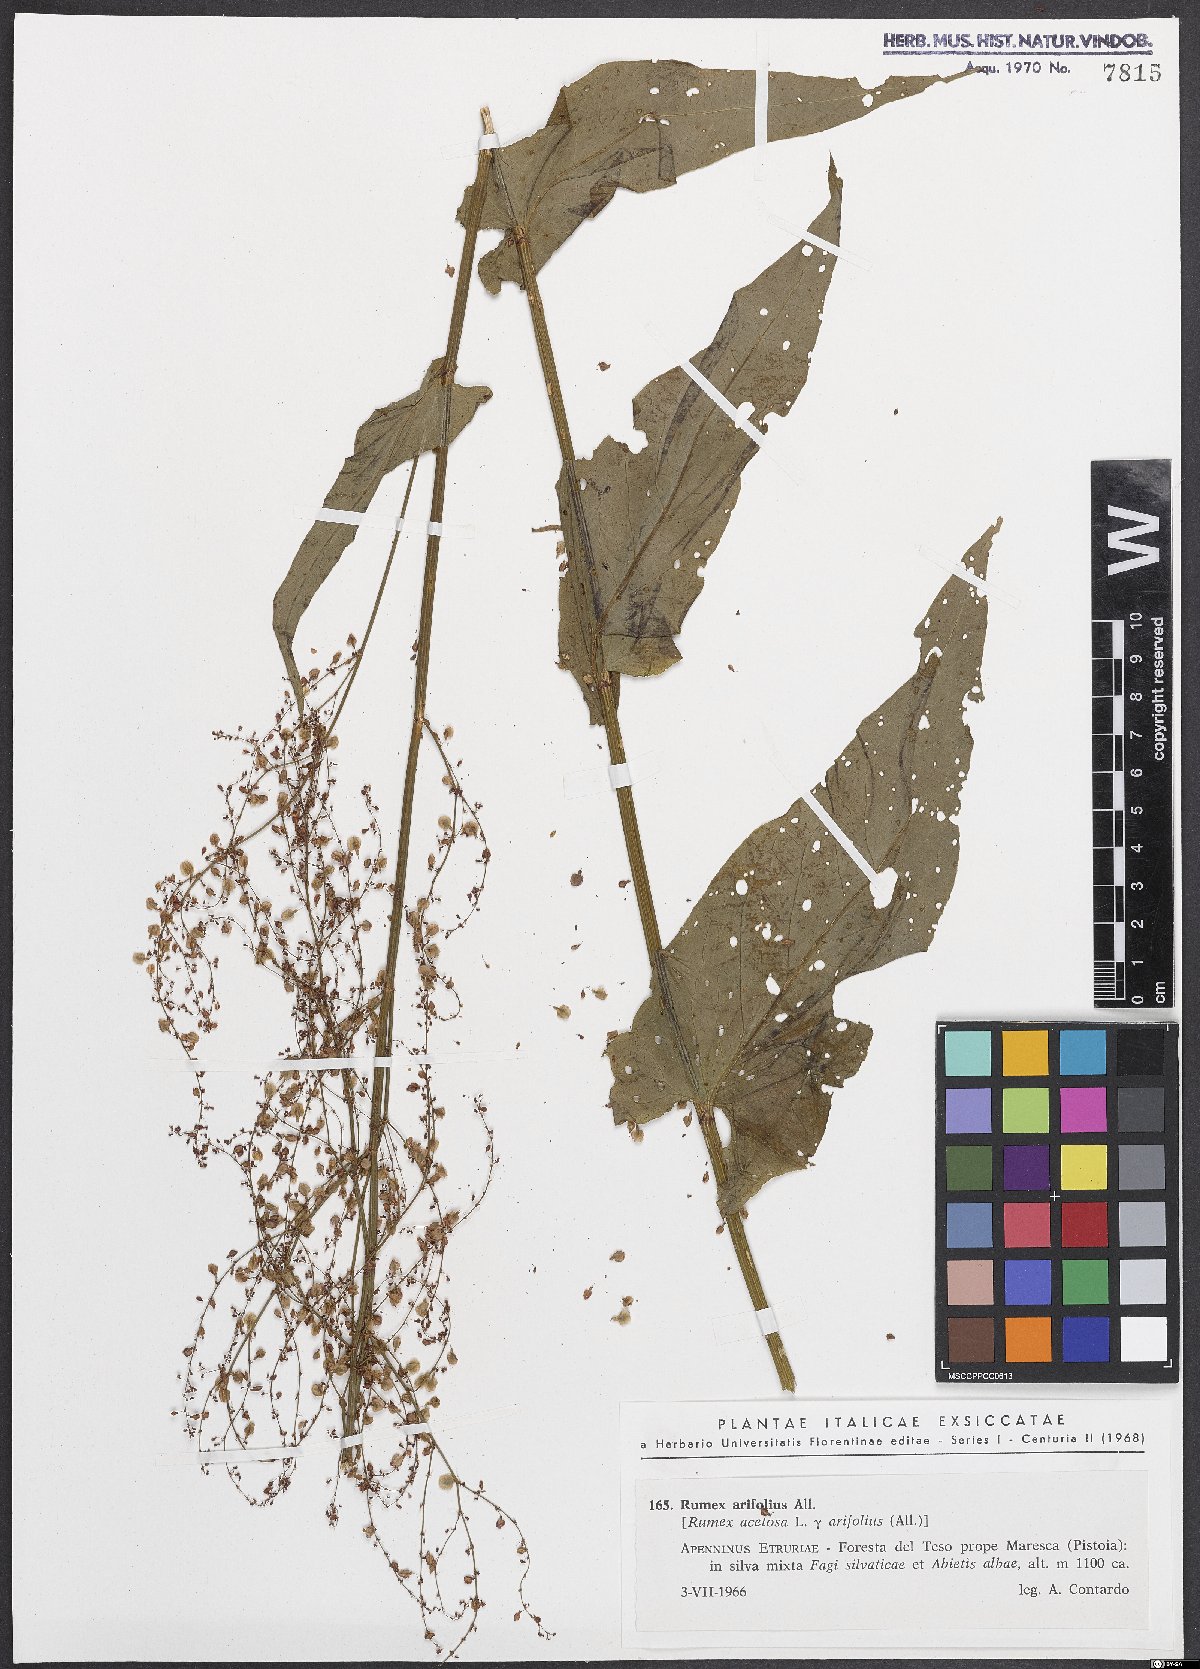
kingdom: Plantae
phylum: Tracheophyta
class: Magnoliopsida
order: Caryophyllales
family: Polygonaceae
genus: Rumex
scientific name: Rumex arifolius
